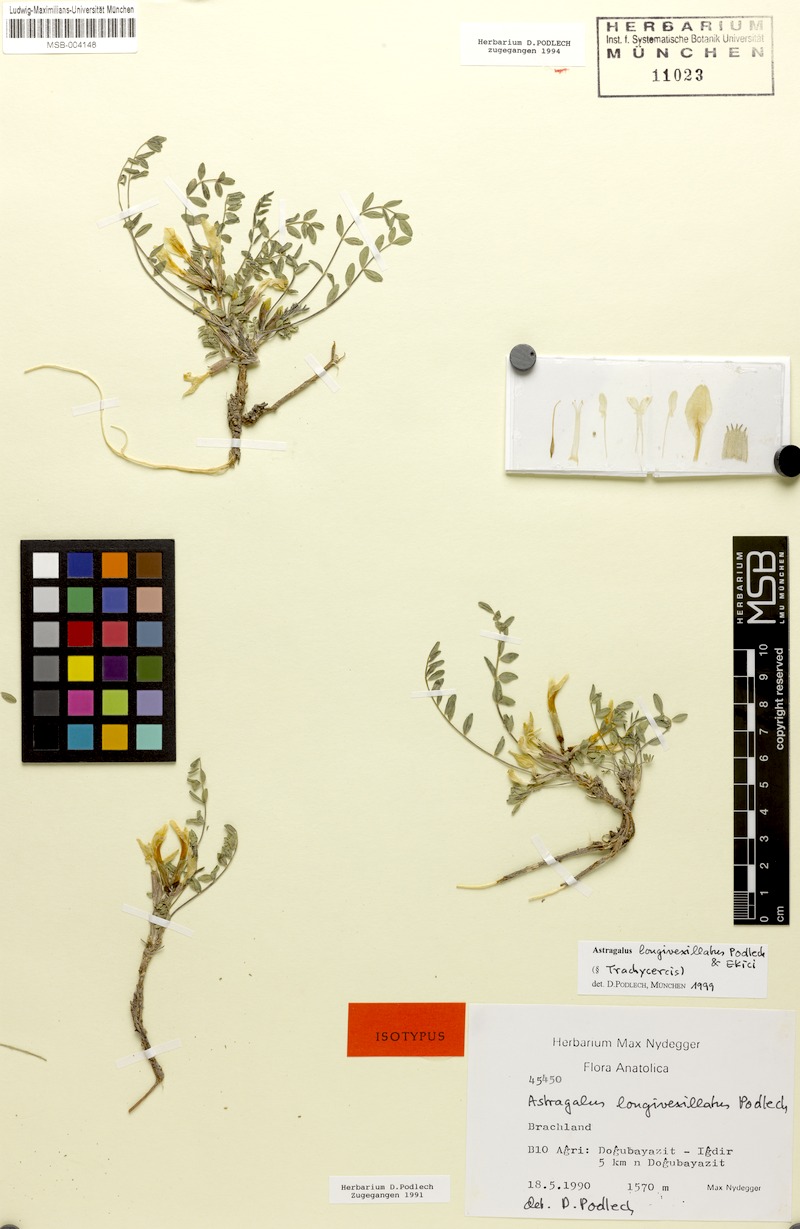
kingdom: Plantae
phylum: Tracheophyta
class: Magnoliopsida
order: Fabales
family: Fabaceae
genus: Astragalus
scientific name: Astragalus longivexillatus
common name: Long-flagged milk vetch
